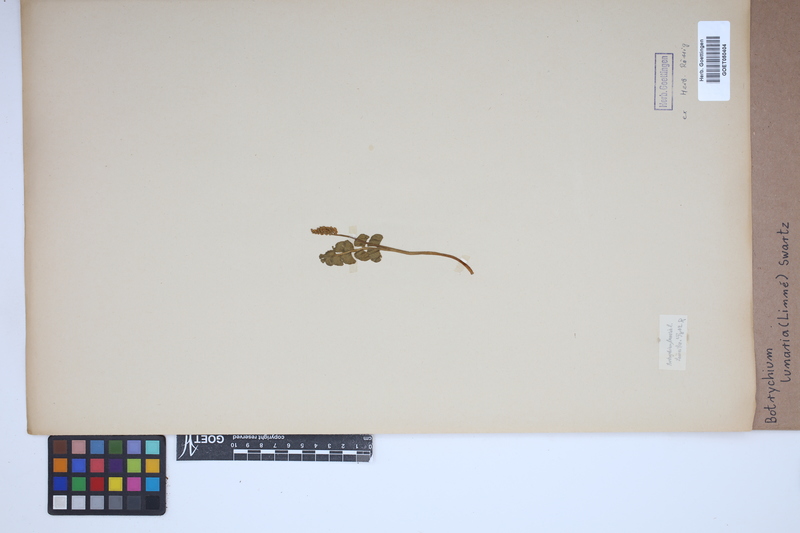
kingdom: Plantae
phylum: Tracheophyta
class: Polypodiopsida
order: Ophioglossales
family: Ophioglossaceae
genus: Botrychium
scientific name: Botrychium lunaria
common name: Moonwort
